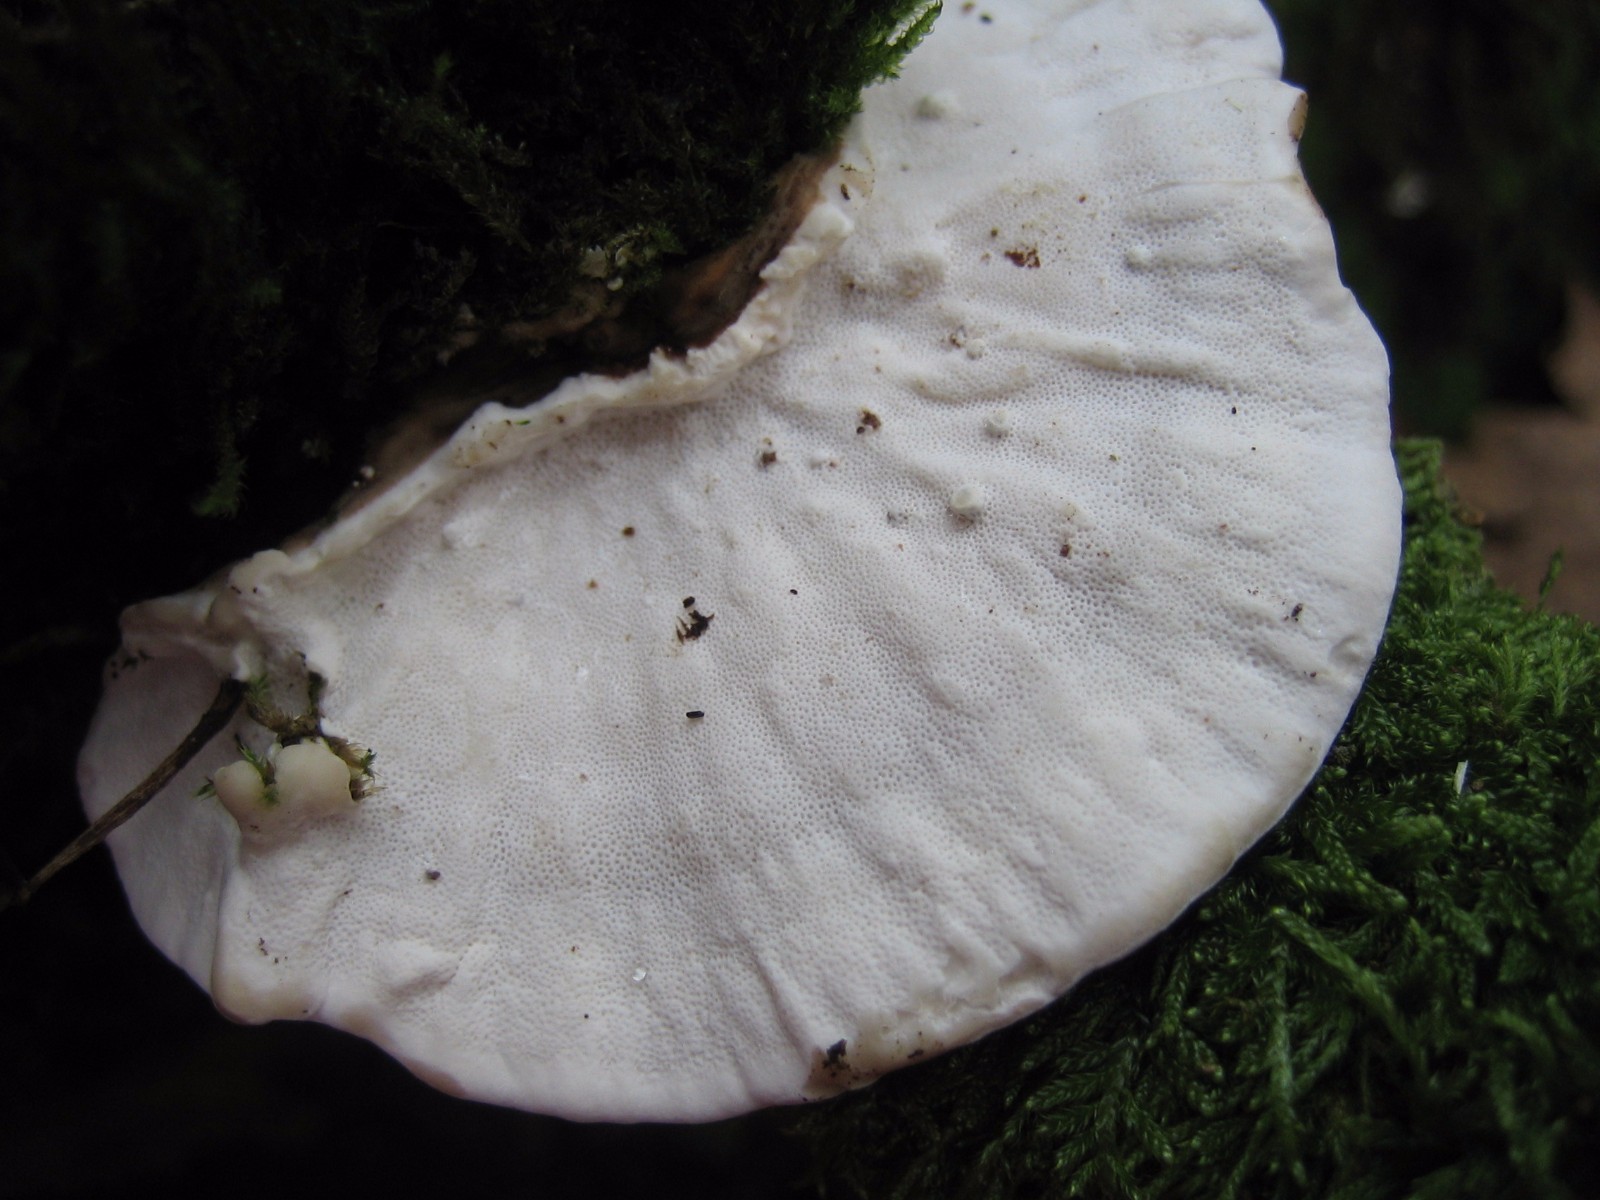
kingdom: Fungi
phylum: Basidiomycota
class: Agaricomycetes
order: Polyporales
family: Polyporaceae
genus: Trametes
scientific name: Trametes versicolor
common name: broget læderporesvamp
